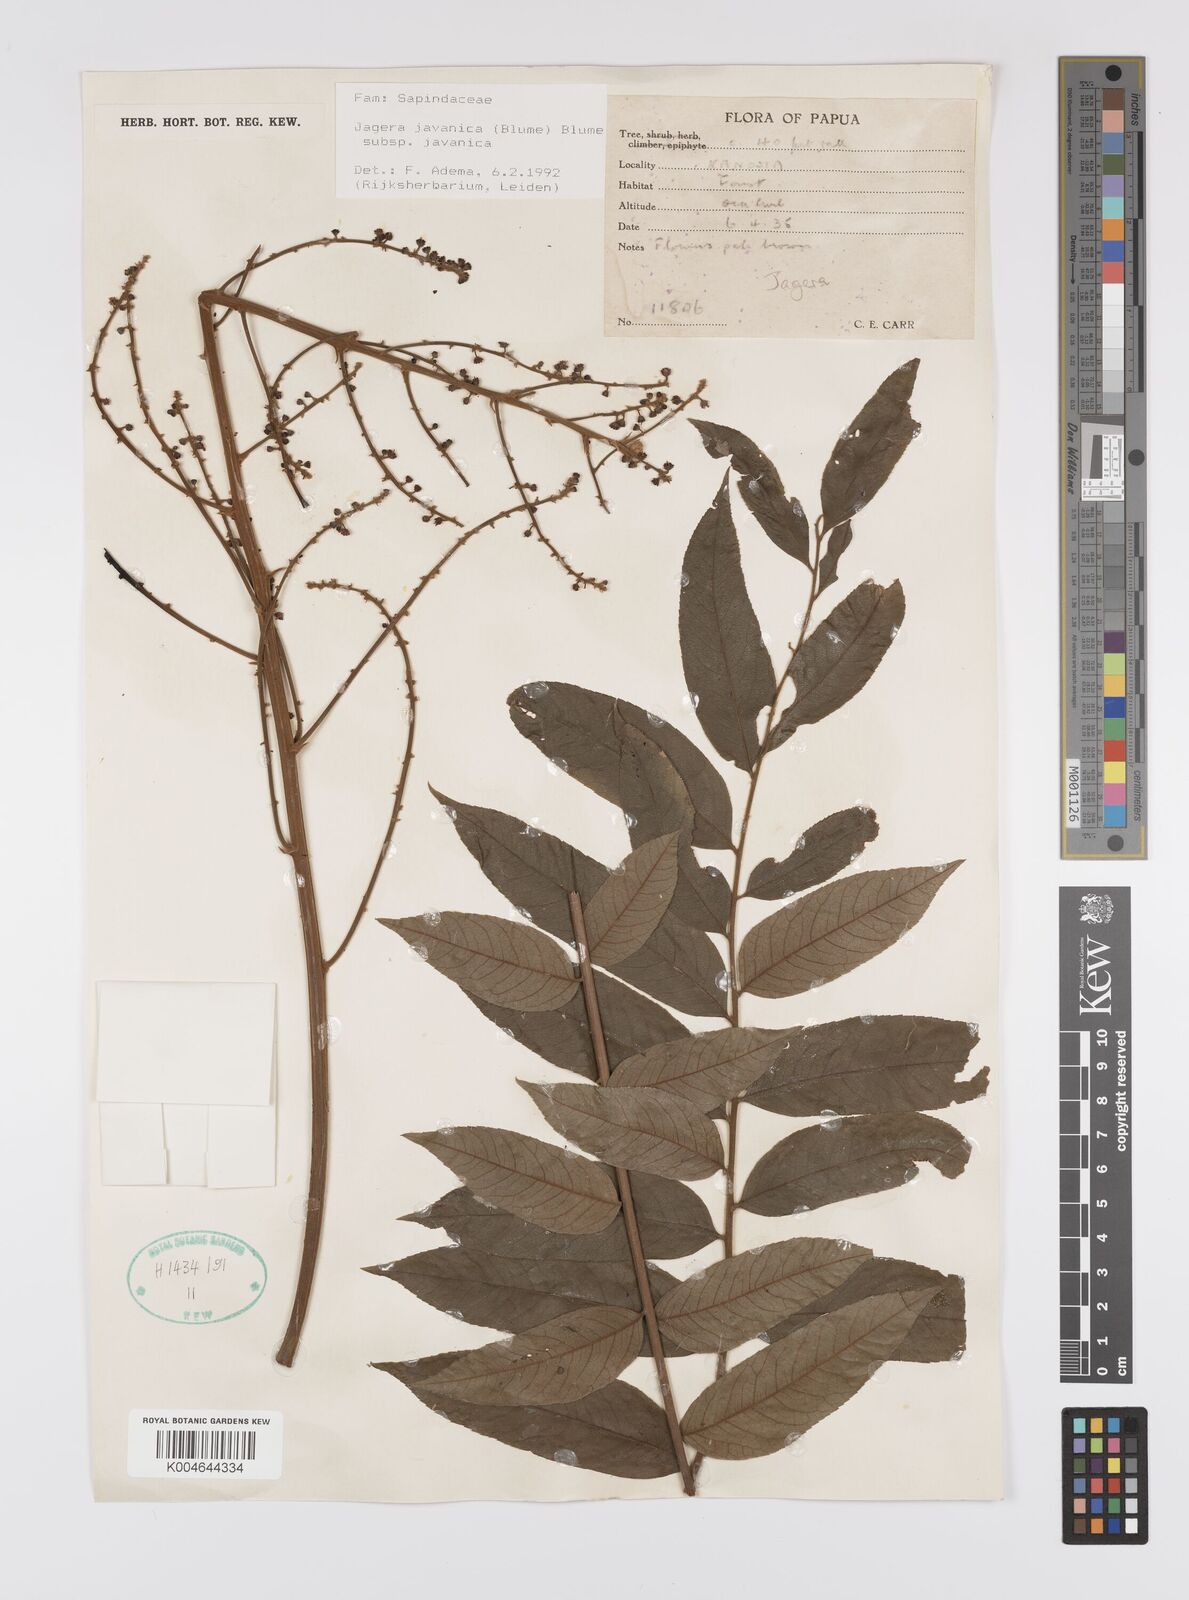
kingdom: Plantae
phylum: Tracheophyta
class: Magnoliopsida
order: Sapindales
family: Sapindaceae
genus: Jagera
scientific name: Jagera javanica
